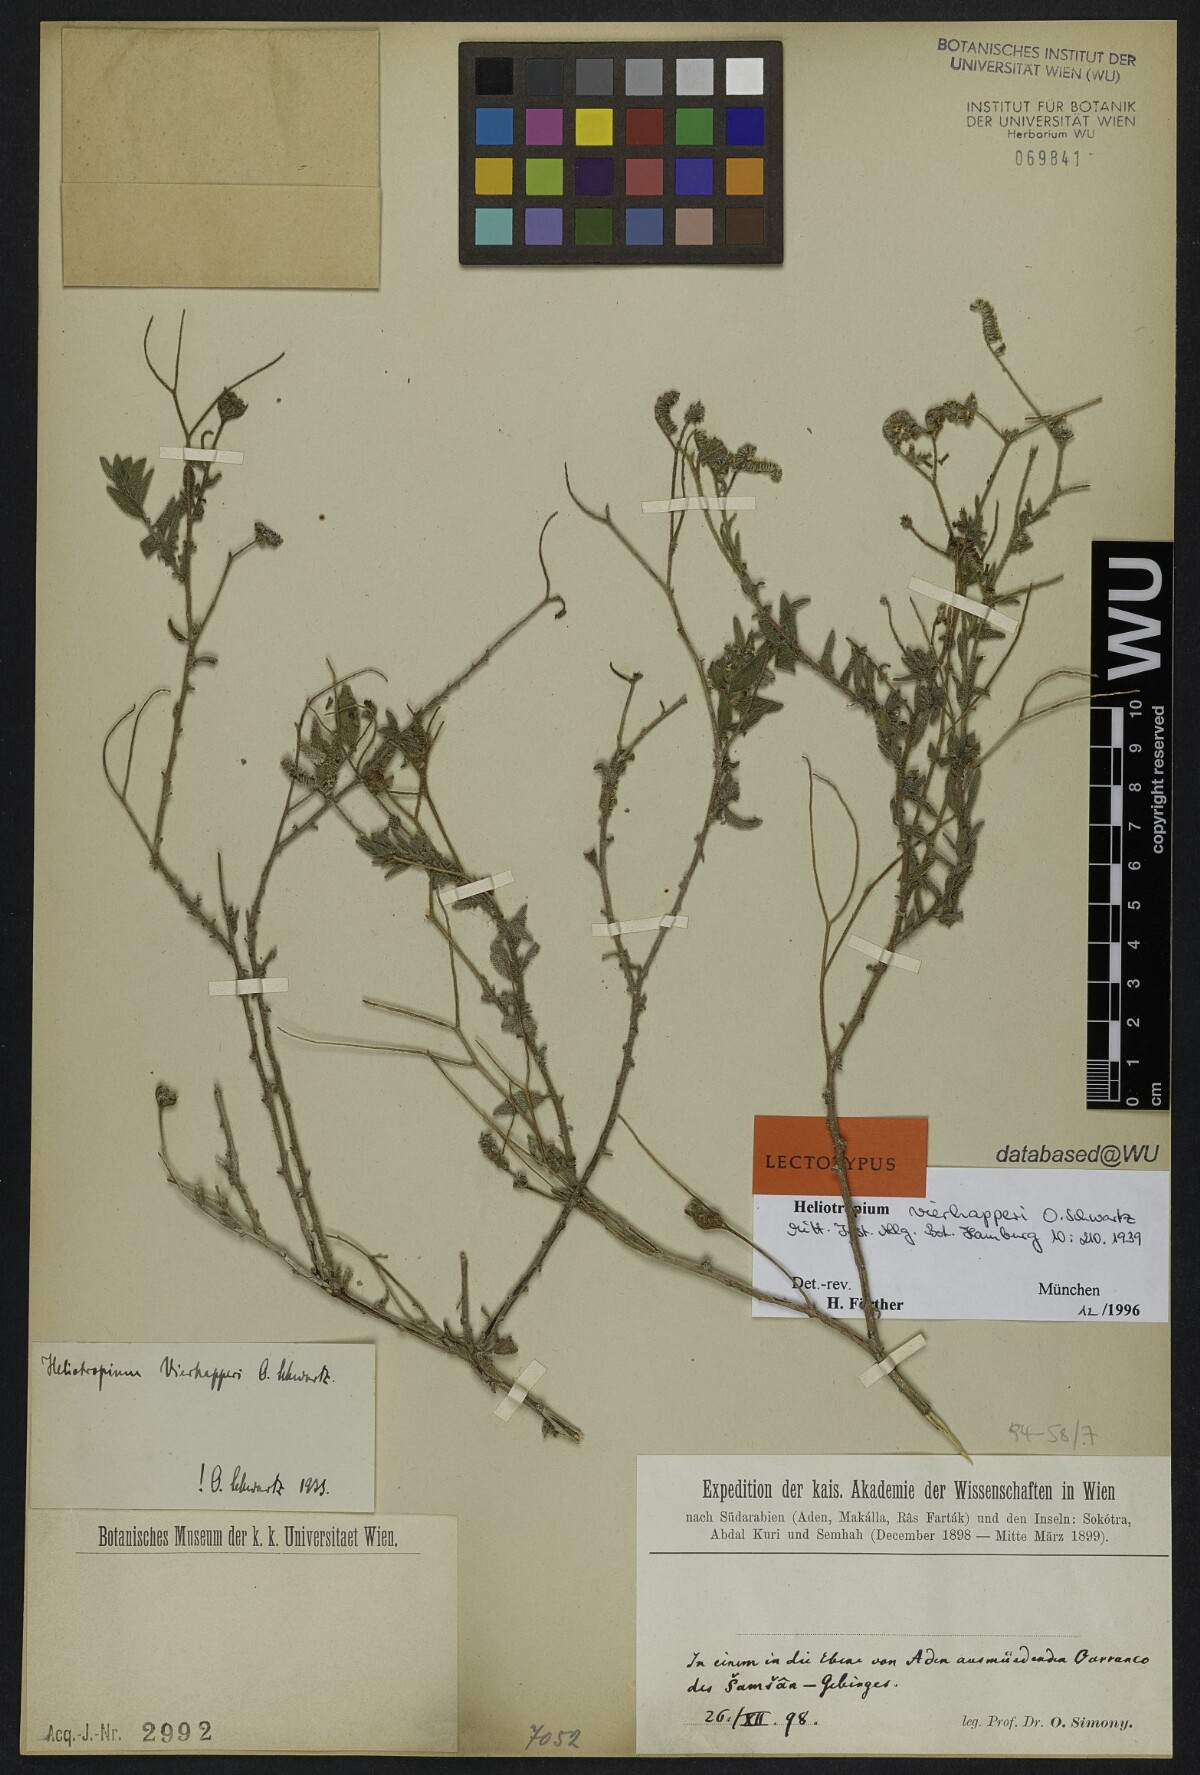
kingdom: Plantae
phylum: Tracheophyta
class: Magnoliopsida
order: Boraginales
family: Heliotropiaceae
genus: Heliotropium
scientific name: Heliotropium ophioglossum
